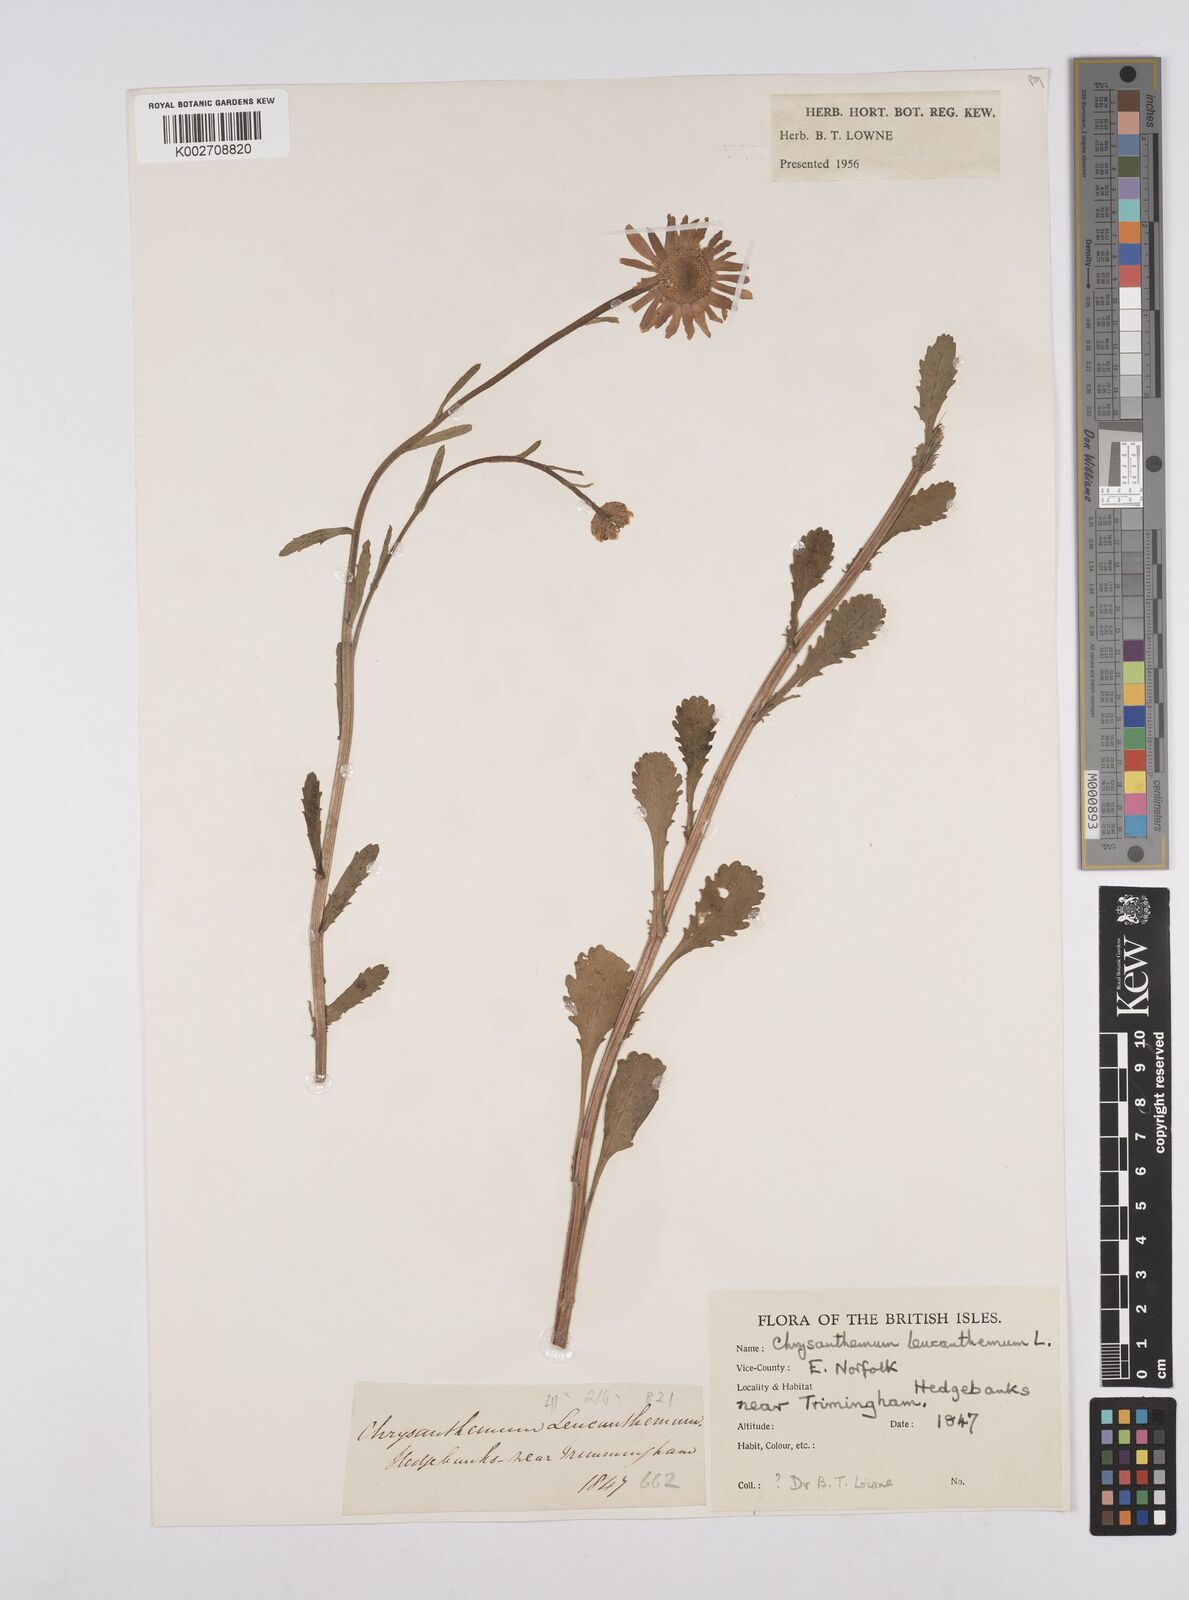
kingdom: Plantae
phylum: Tracheophyta
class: Magnoliopsida
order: Asterales
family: Asteraceae
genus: Leucanthemum
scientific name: Leucanthemum
